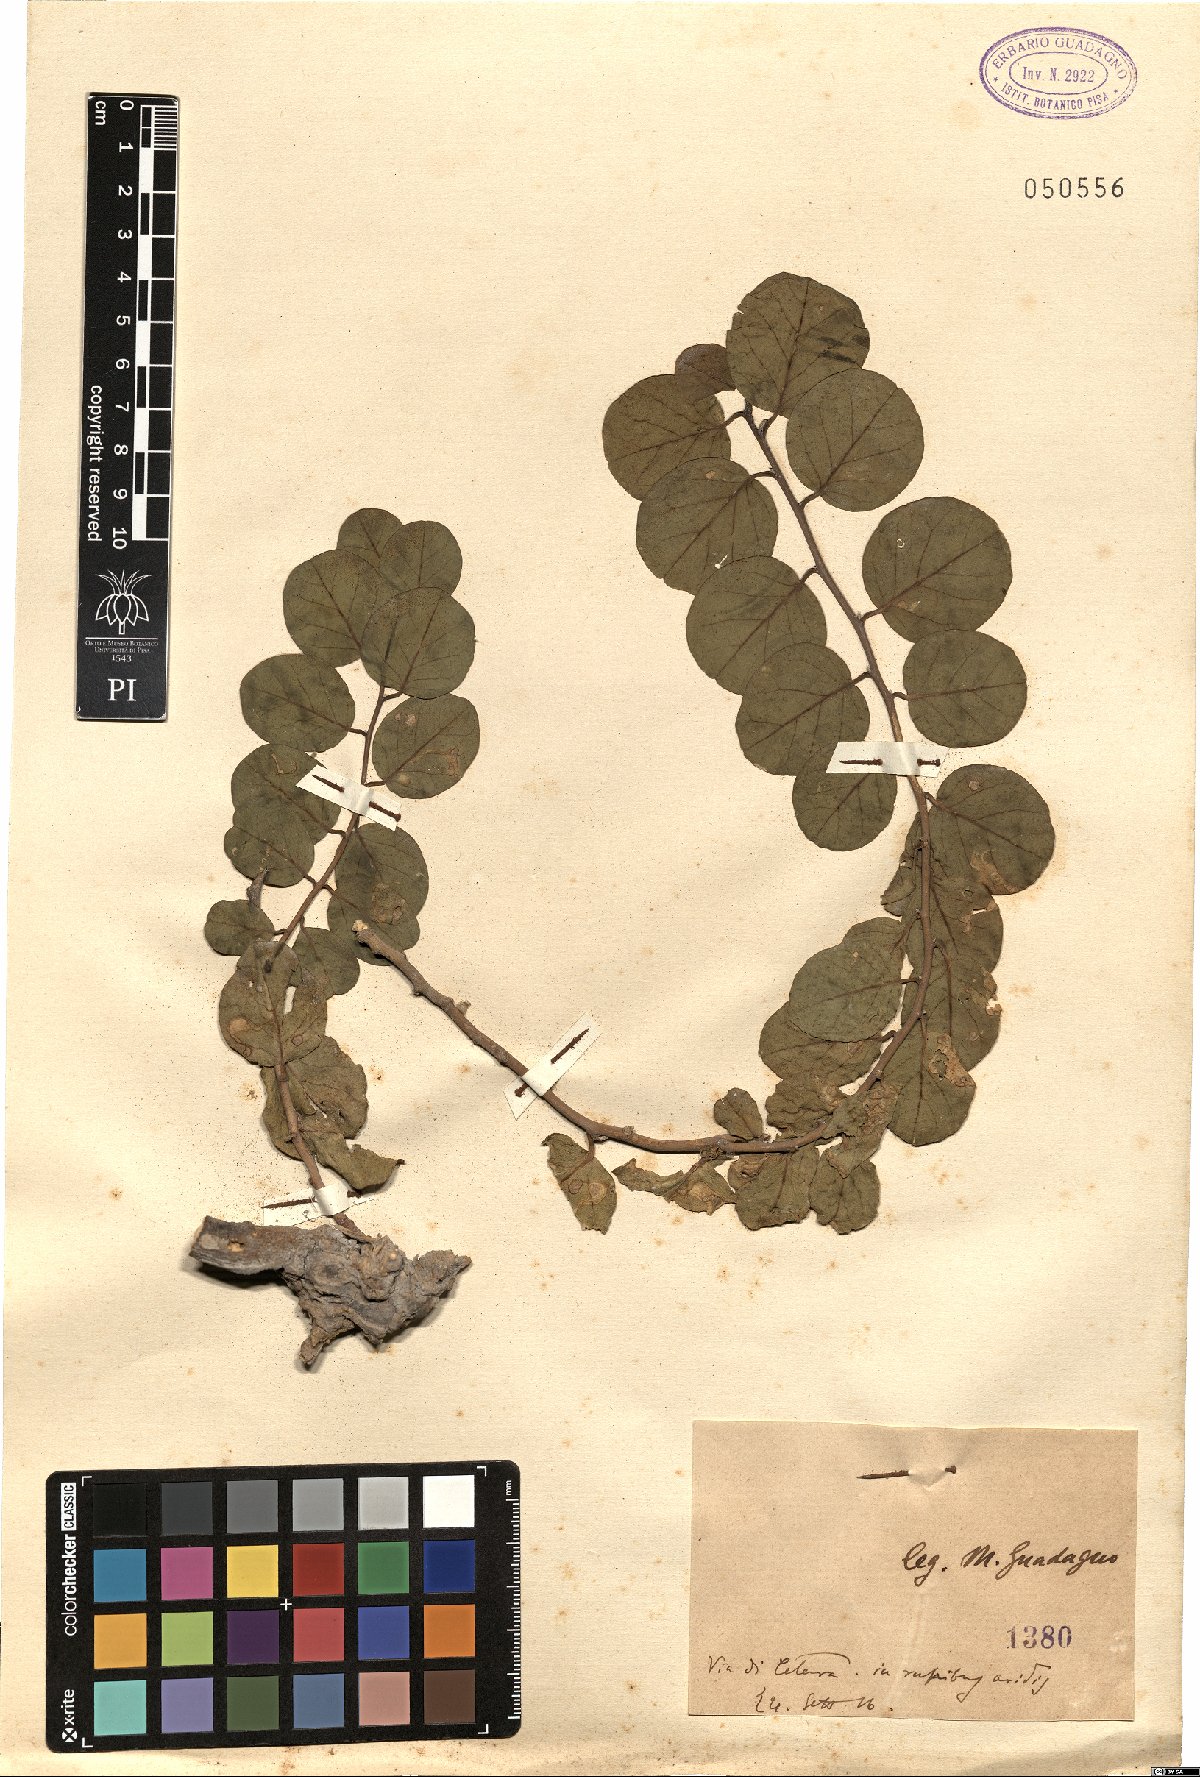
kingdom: Plantae
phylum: Tracheophyta
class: Magnoliopsida
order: Brassicales
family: Capparaceae
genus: Capparis
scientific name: Capparis
